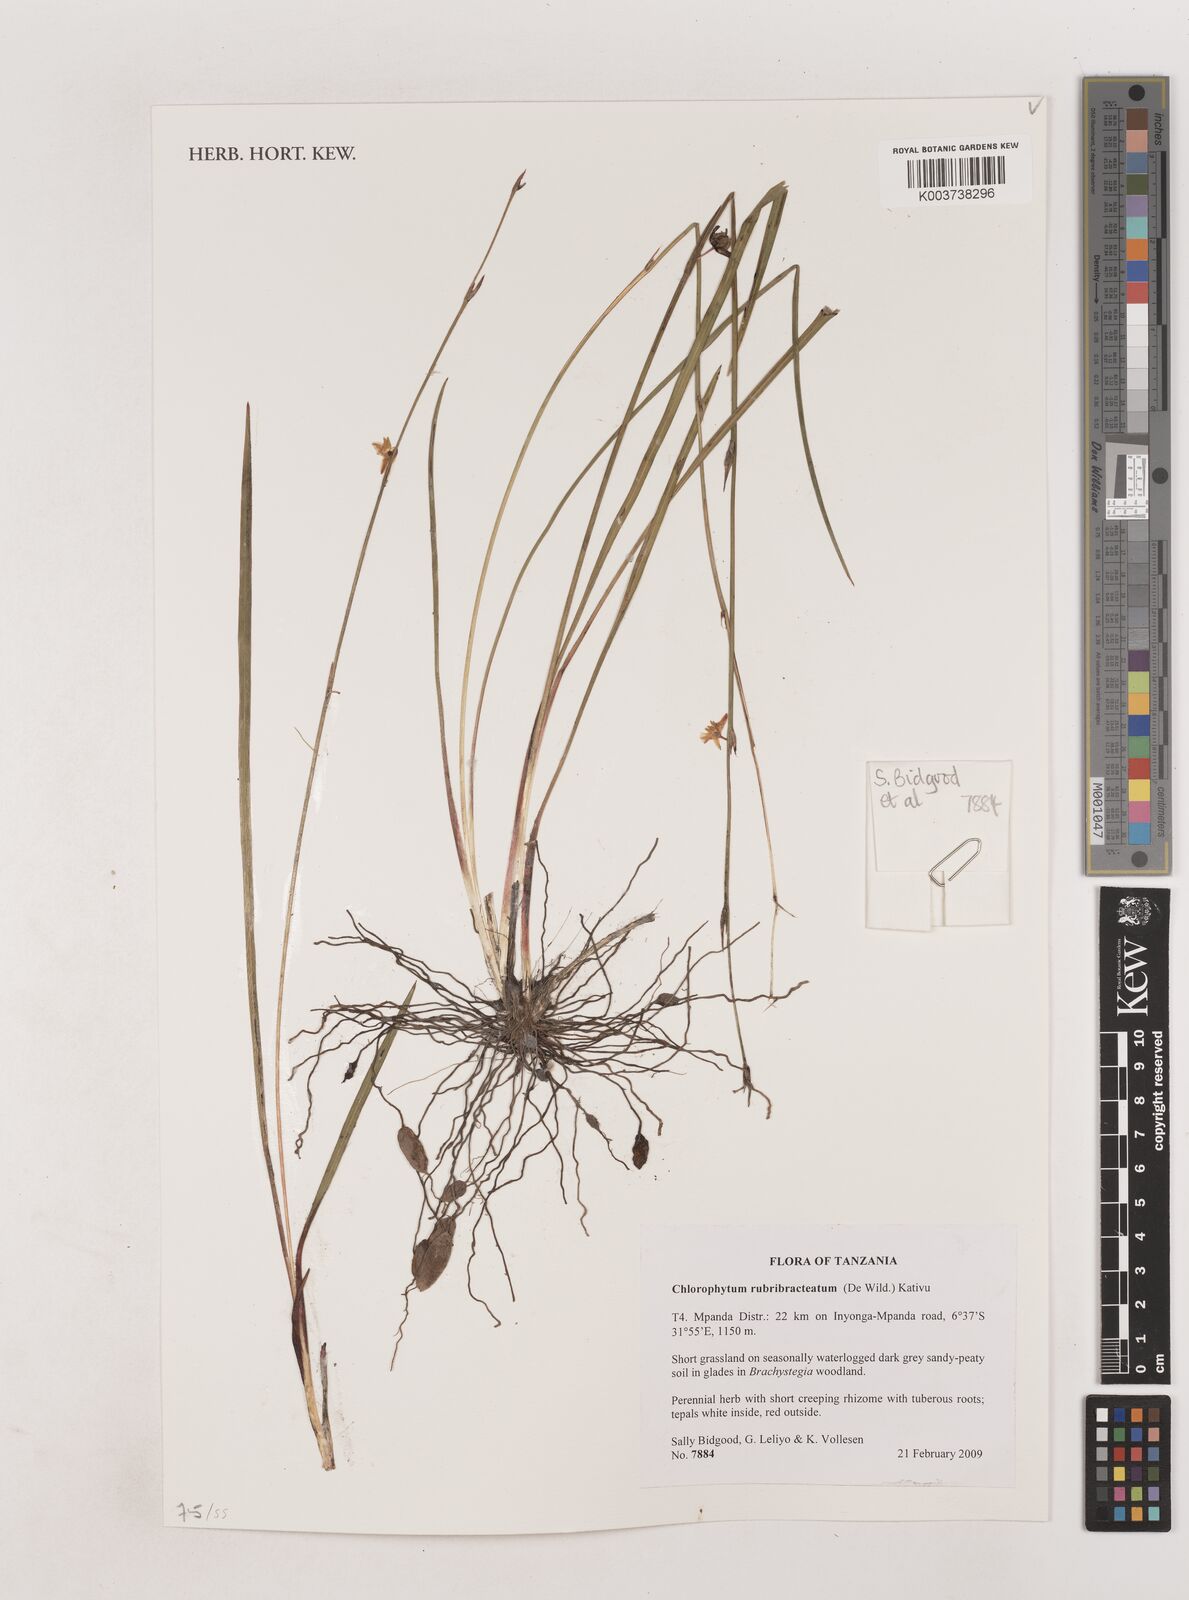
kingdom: Plantae
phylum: Tracheophyta
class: Liliopsida
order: Asparagales
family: Asparagaceae
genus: Chlorophytum
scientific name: Chlorophytum rubribracteatum
